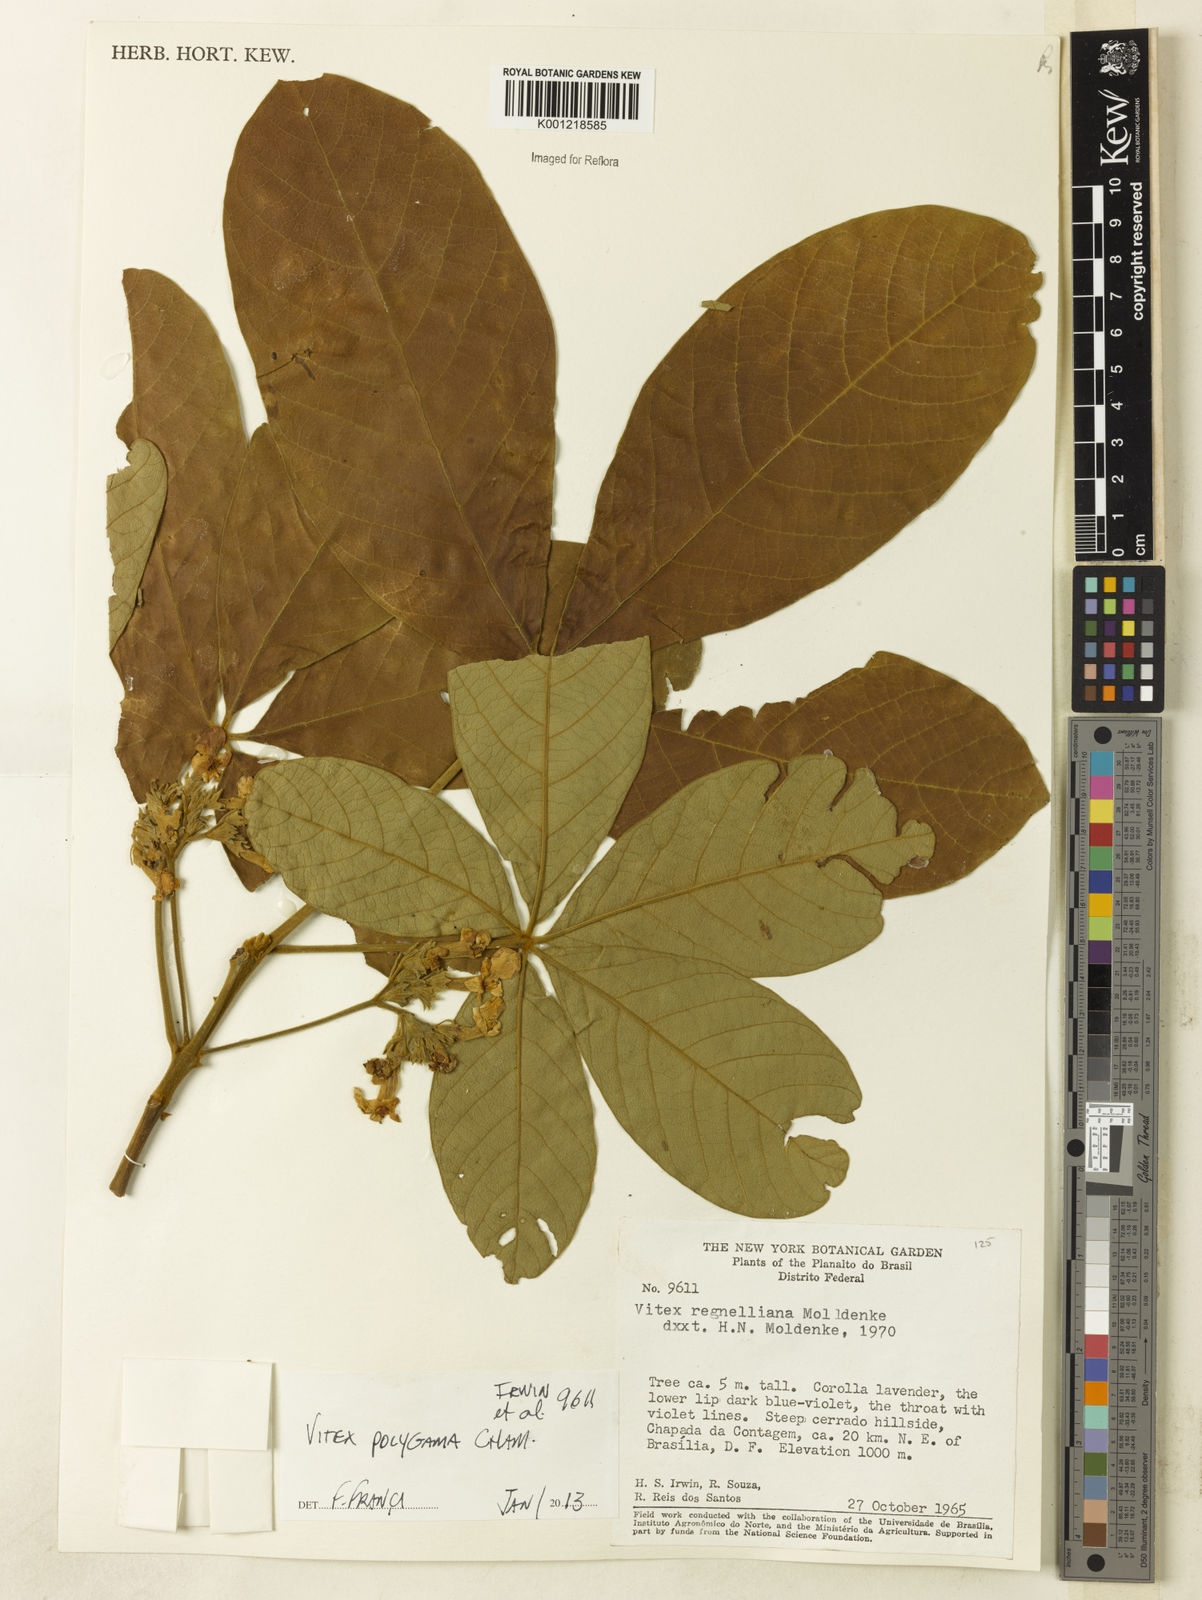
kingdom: Plantae
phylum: Tracheophyta
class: Magnoliopsida
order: Lamiales
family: Lamiaceae
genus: Vitex
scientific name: Vitex polygama
